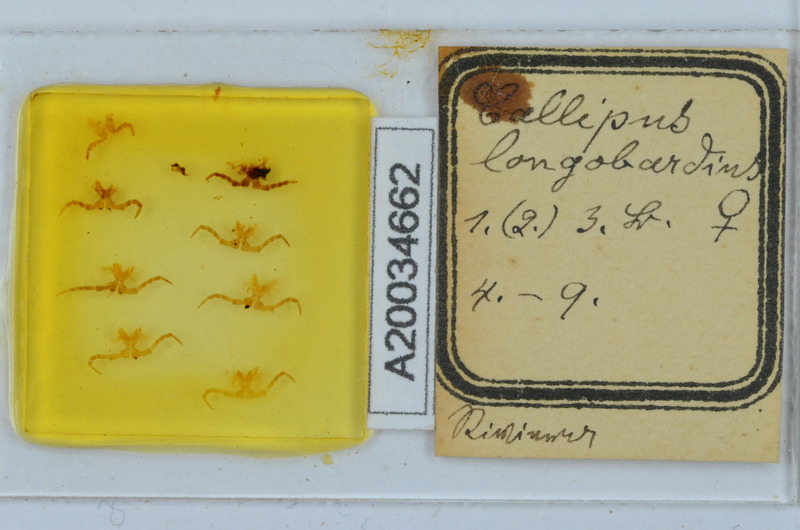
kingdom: Animalia
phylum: Arthropoda
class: Diplopoda
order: Callipodida
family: Callipodidae
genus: Callipus
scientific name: Callipus foetidissimus
